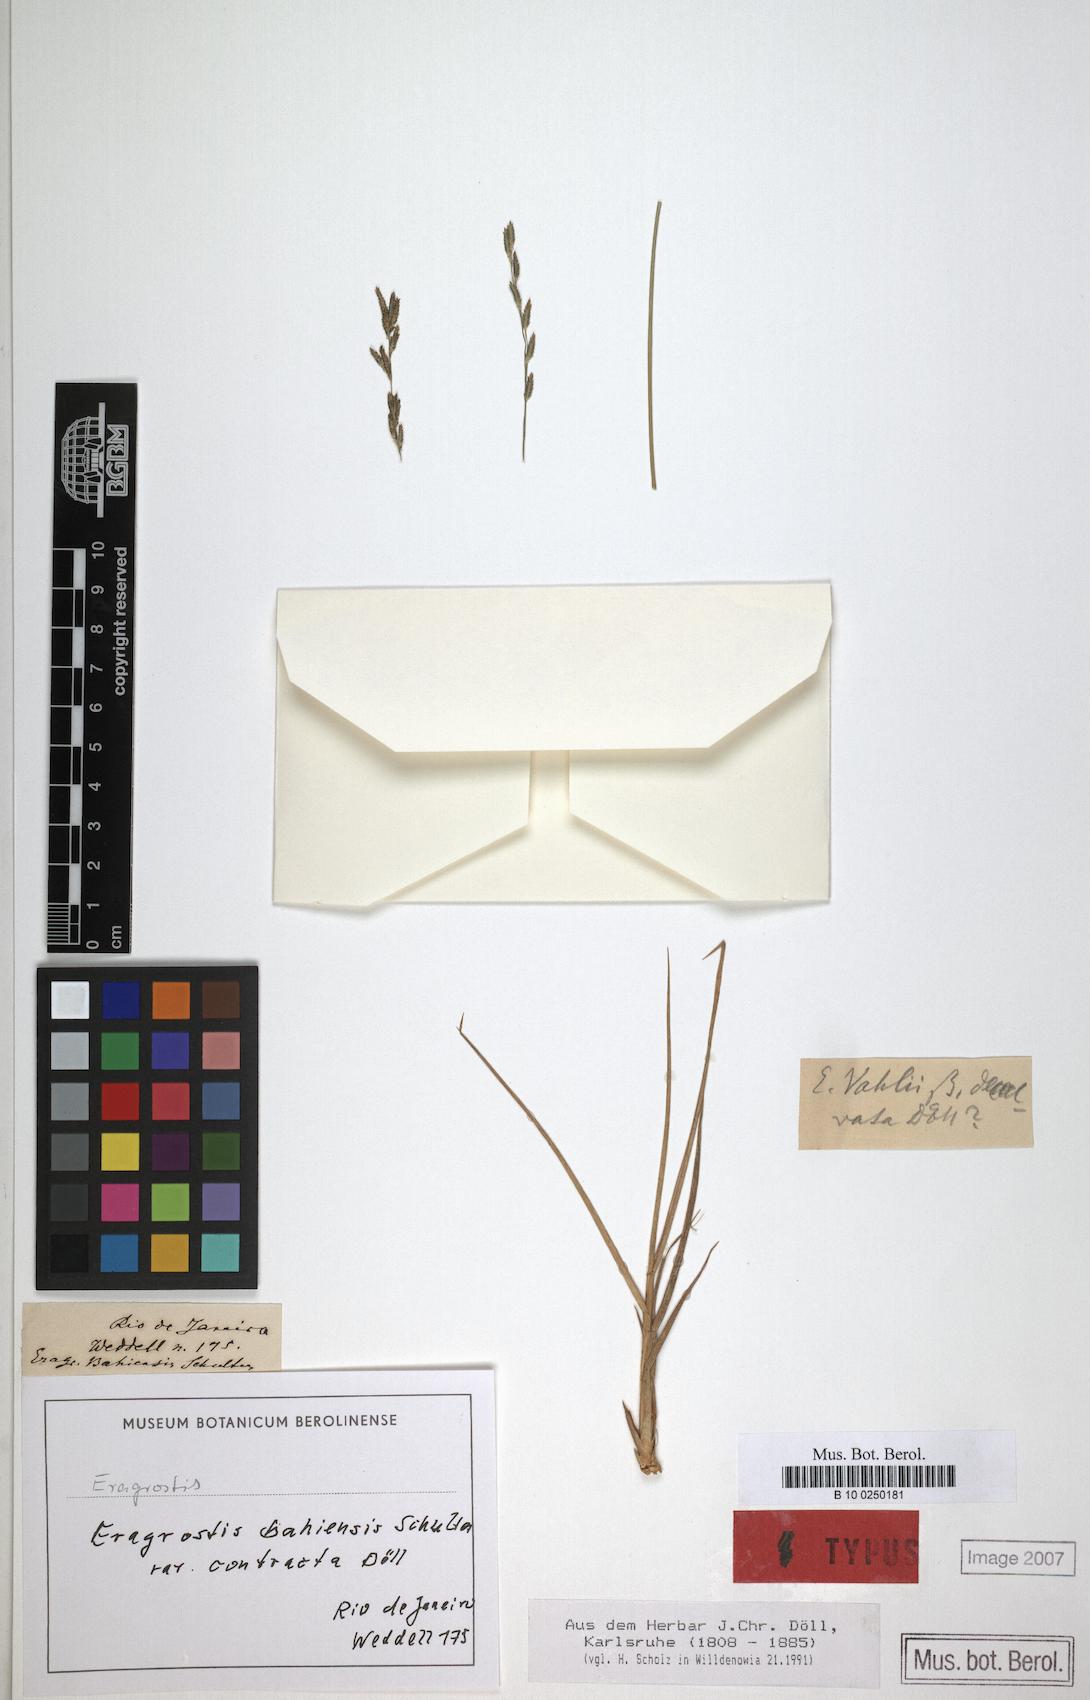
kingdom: Plantae
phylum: Tracheophyta
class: Liliopsida
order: Poales
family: Poaceae
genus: Eragrostis
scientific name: Eragrostis bahiensis
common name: Bahia lovegrass
